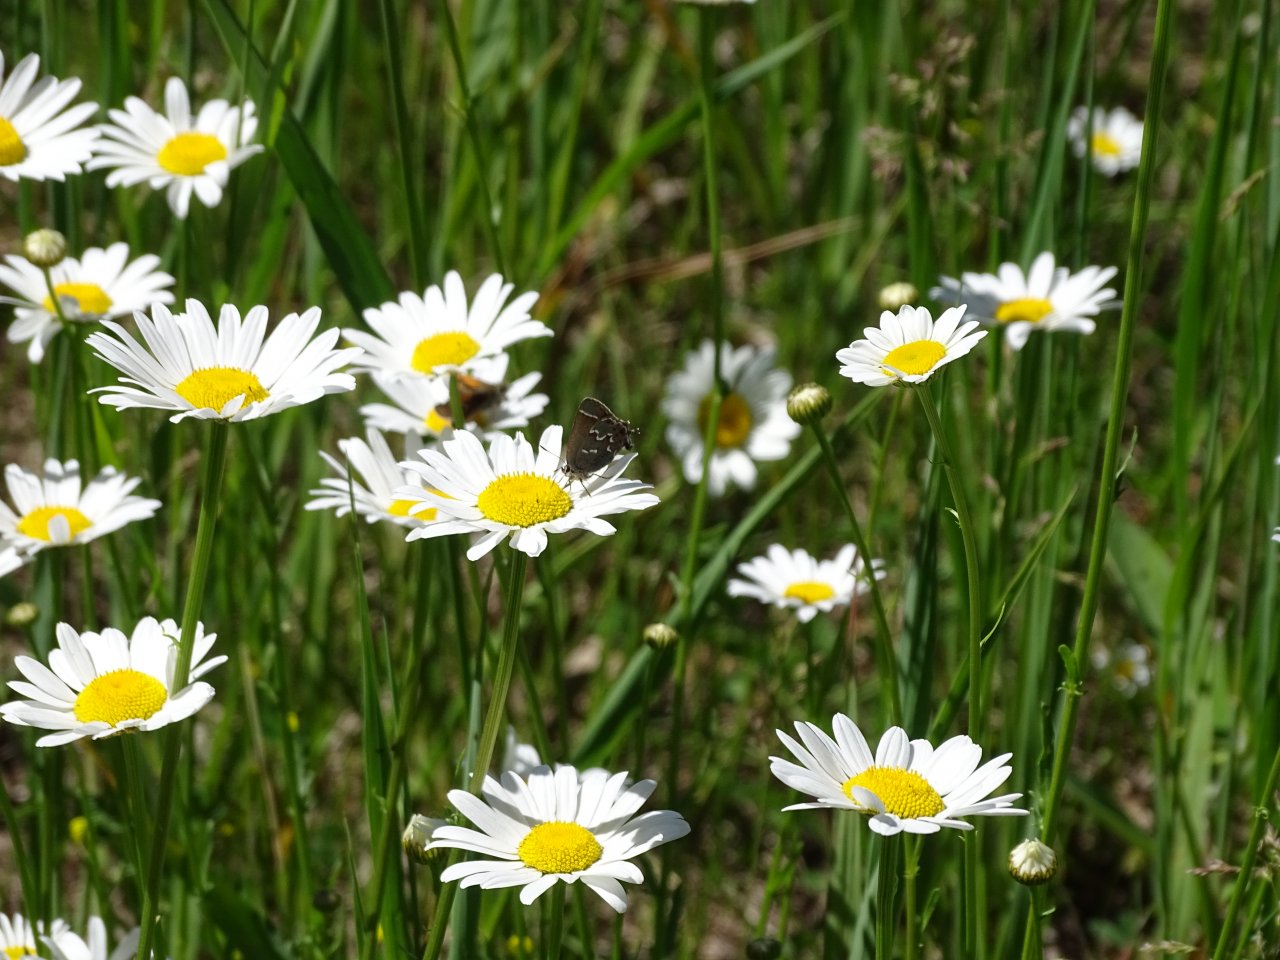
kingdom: Animalia
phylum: Arthropoda
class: Insecta
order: Lepidoptera
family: Lycaenidae
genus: Mitoura
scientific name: Mitoura gryneus
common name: Juniper Hairstreak
